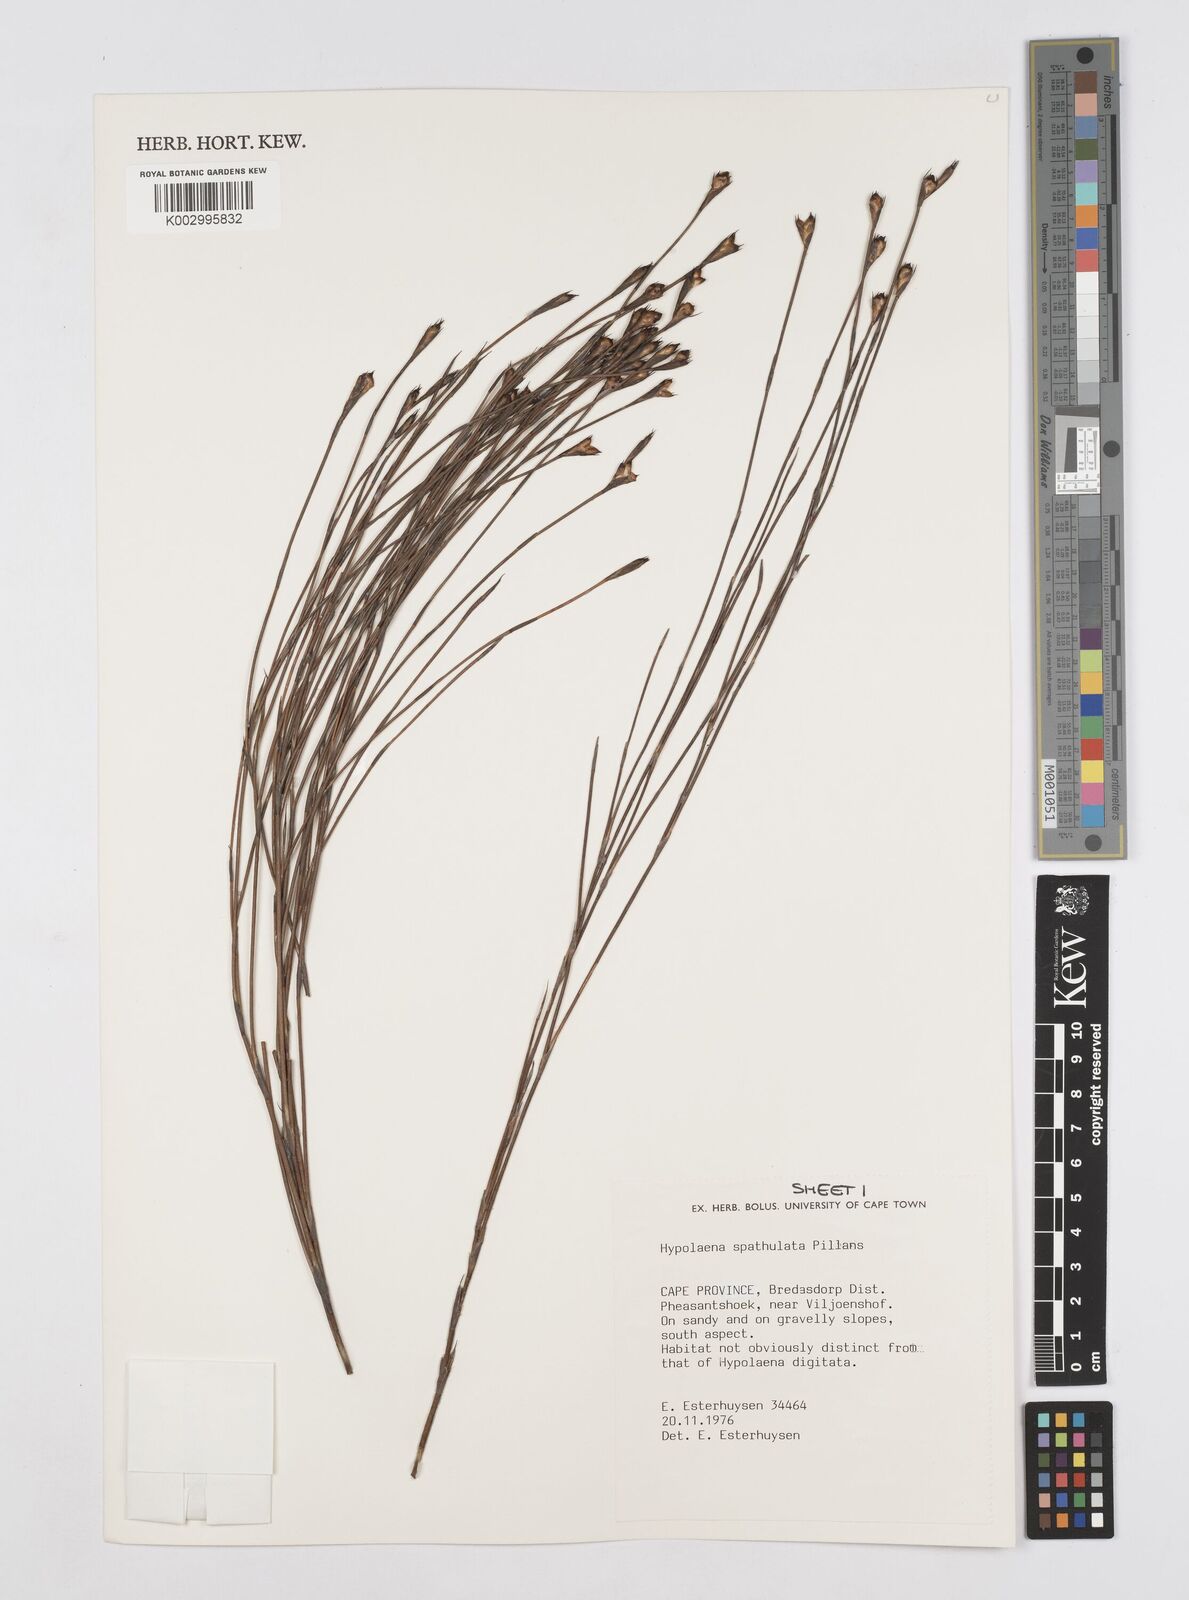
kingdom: Plantae
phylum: Tracheophyta
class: Liliopsida
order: Poales
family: Restionaceae
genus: Mastersiella
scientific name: Mastersiella spathulata
